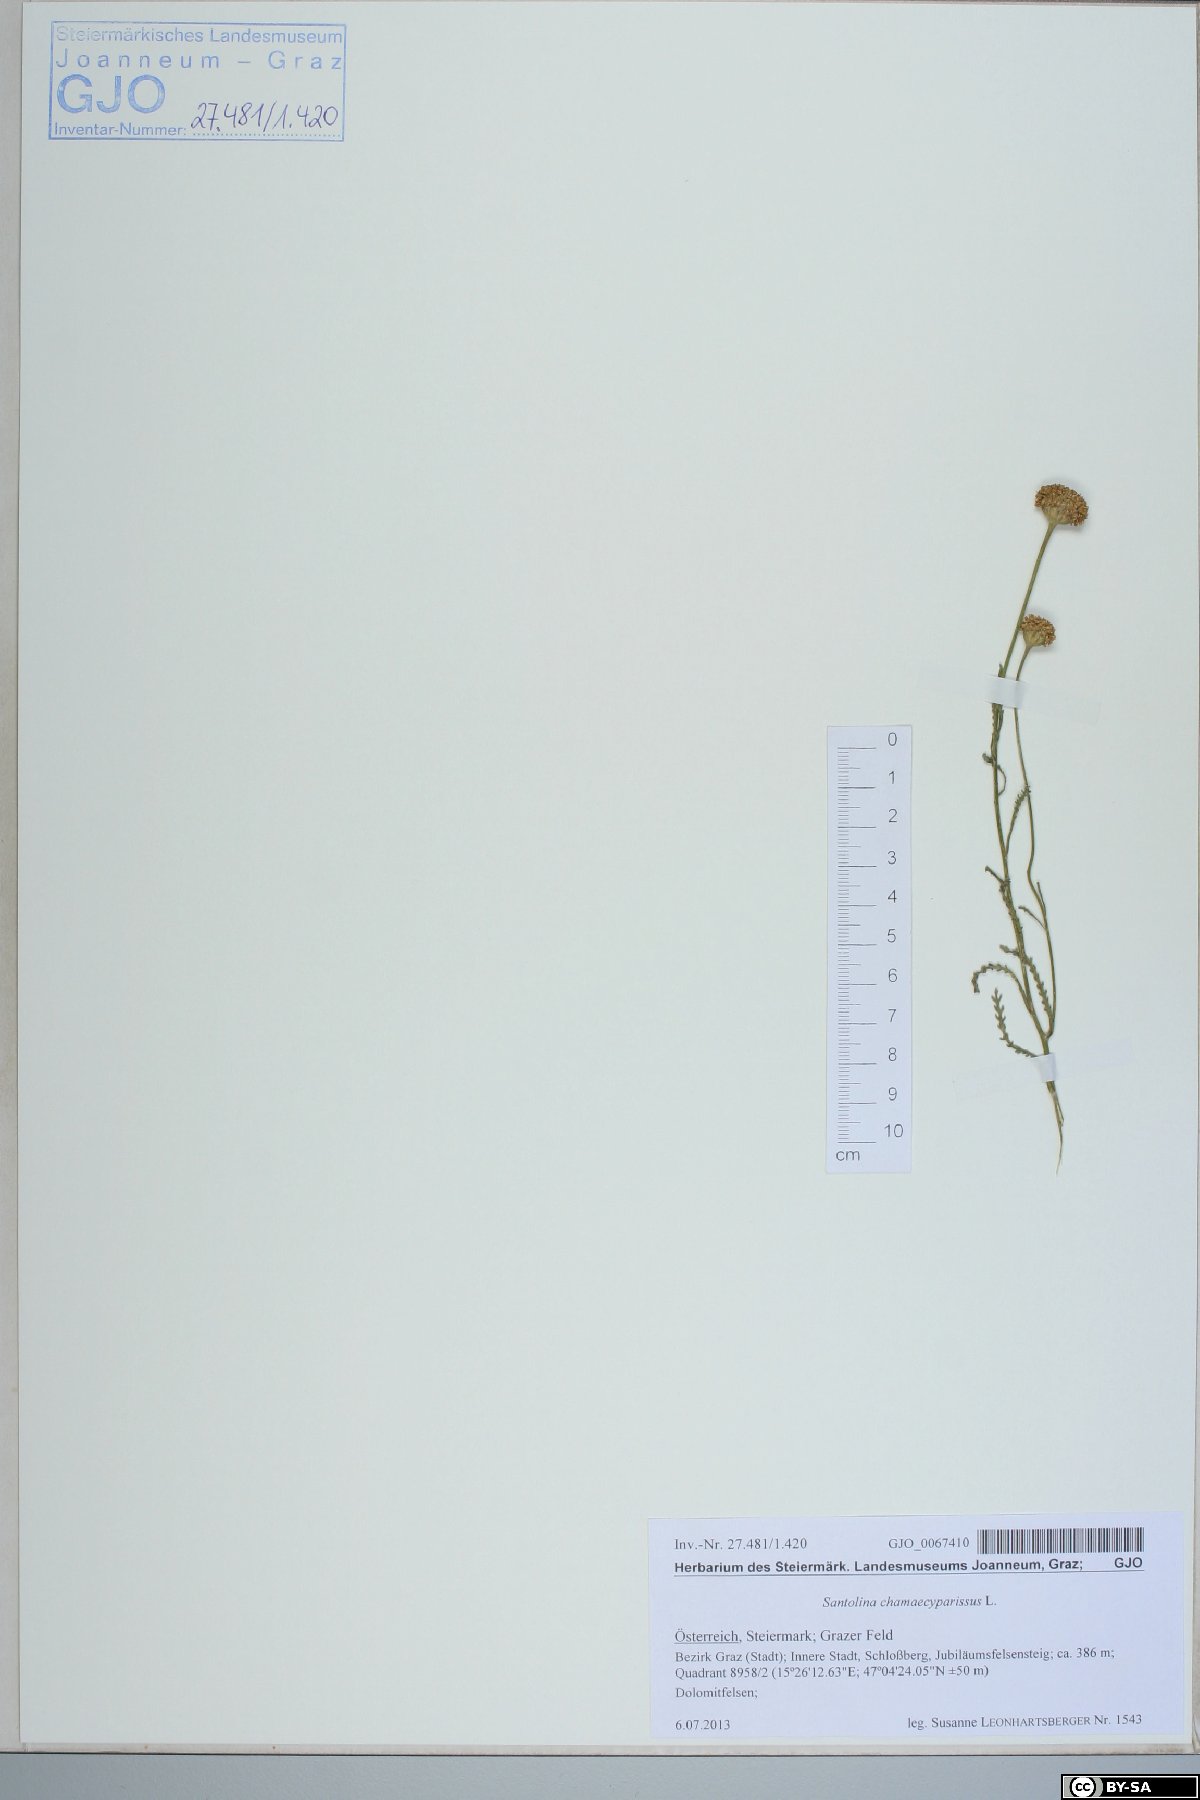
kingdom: Plantae
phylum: Tracheophyta
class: Magnoliopsida
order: Asterales
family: Asteraceae
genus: Santolina
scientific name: Santolina chamaecyparissus
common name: Lavender-cotton
